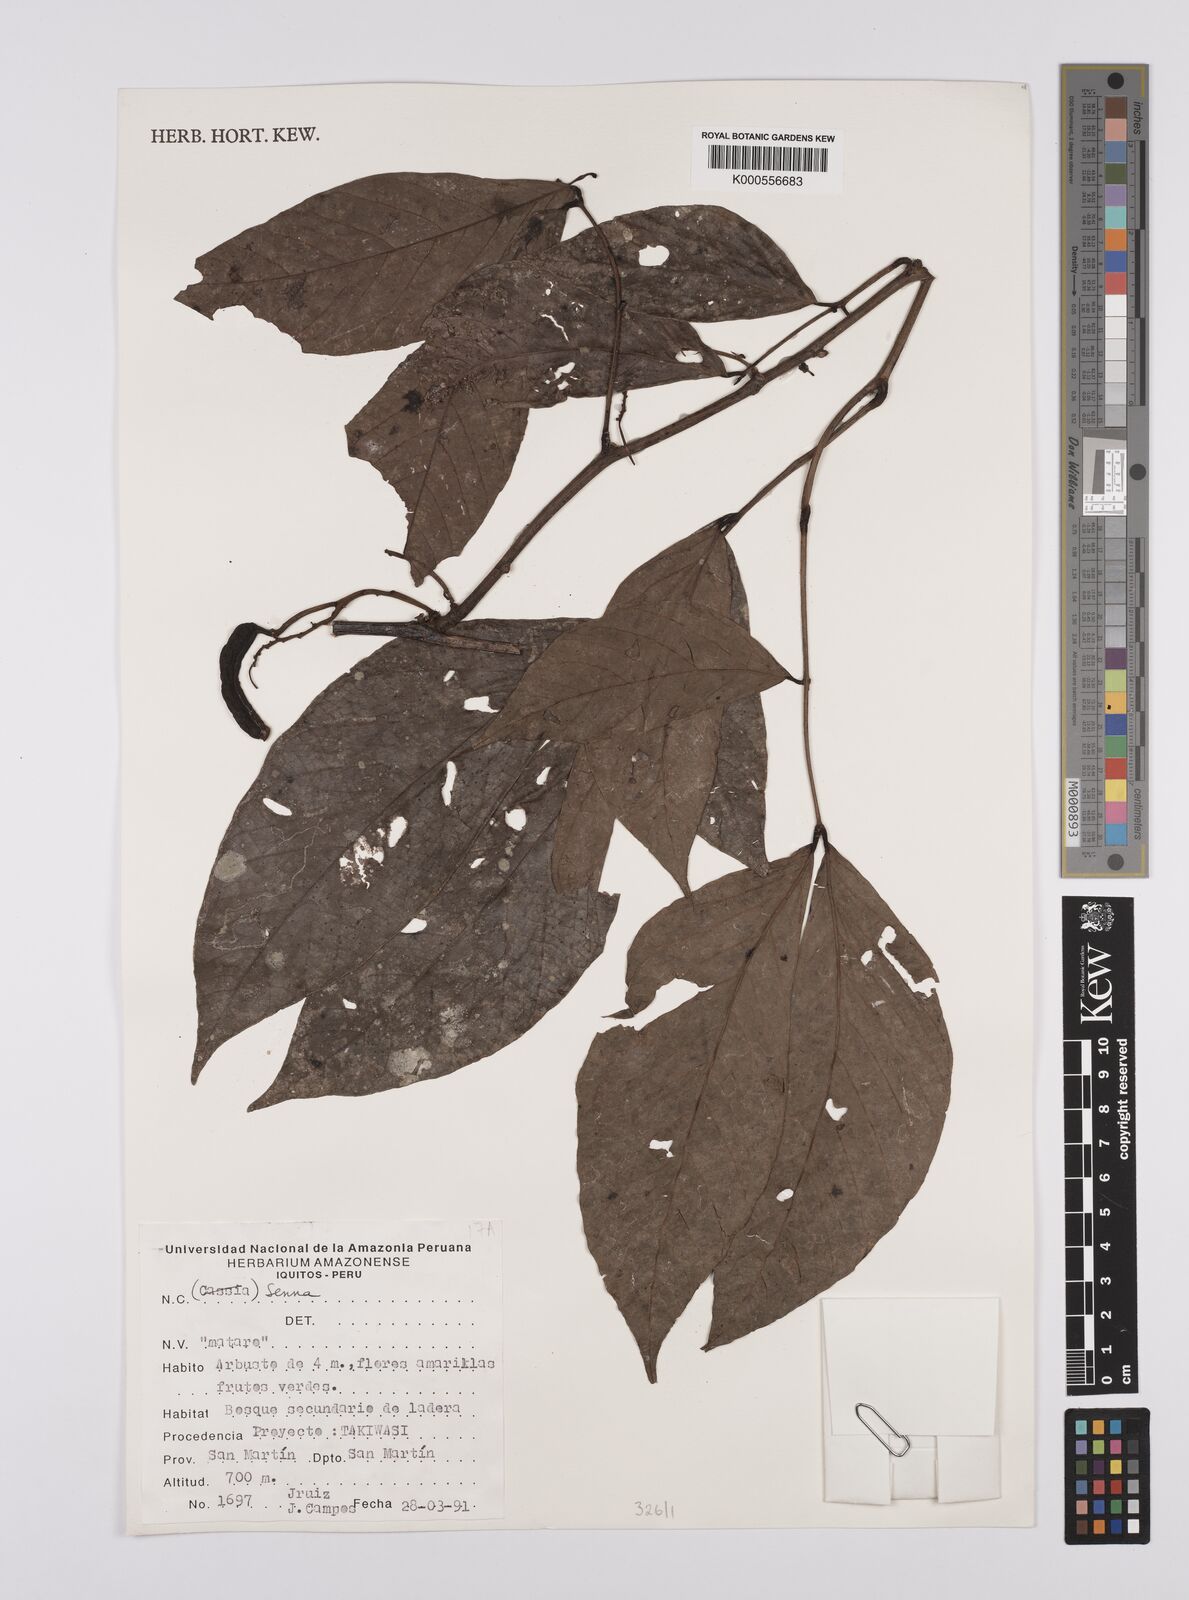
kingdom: Plantae
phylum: Tracheophyta
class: Magnoliopsida
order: Fabales
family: Fabaceae
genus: Senna
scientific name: Senna
